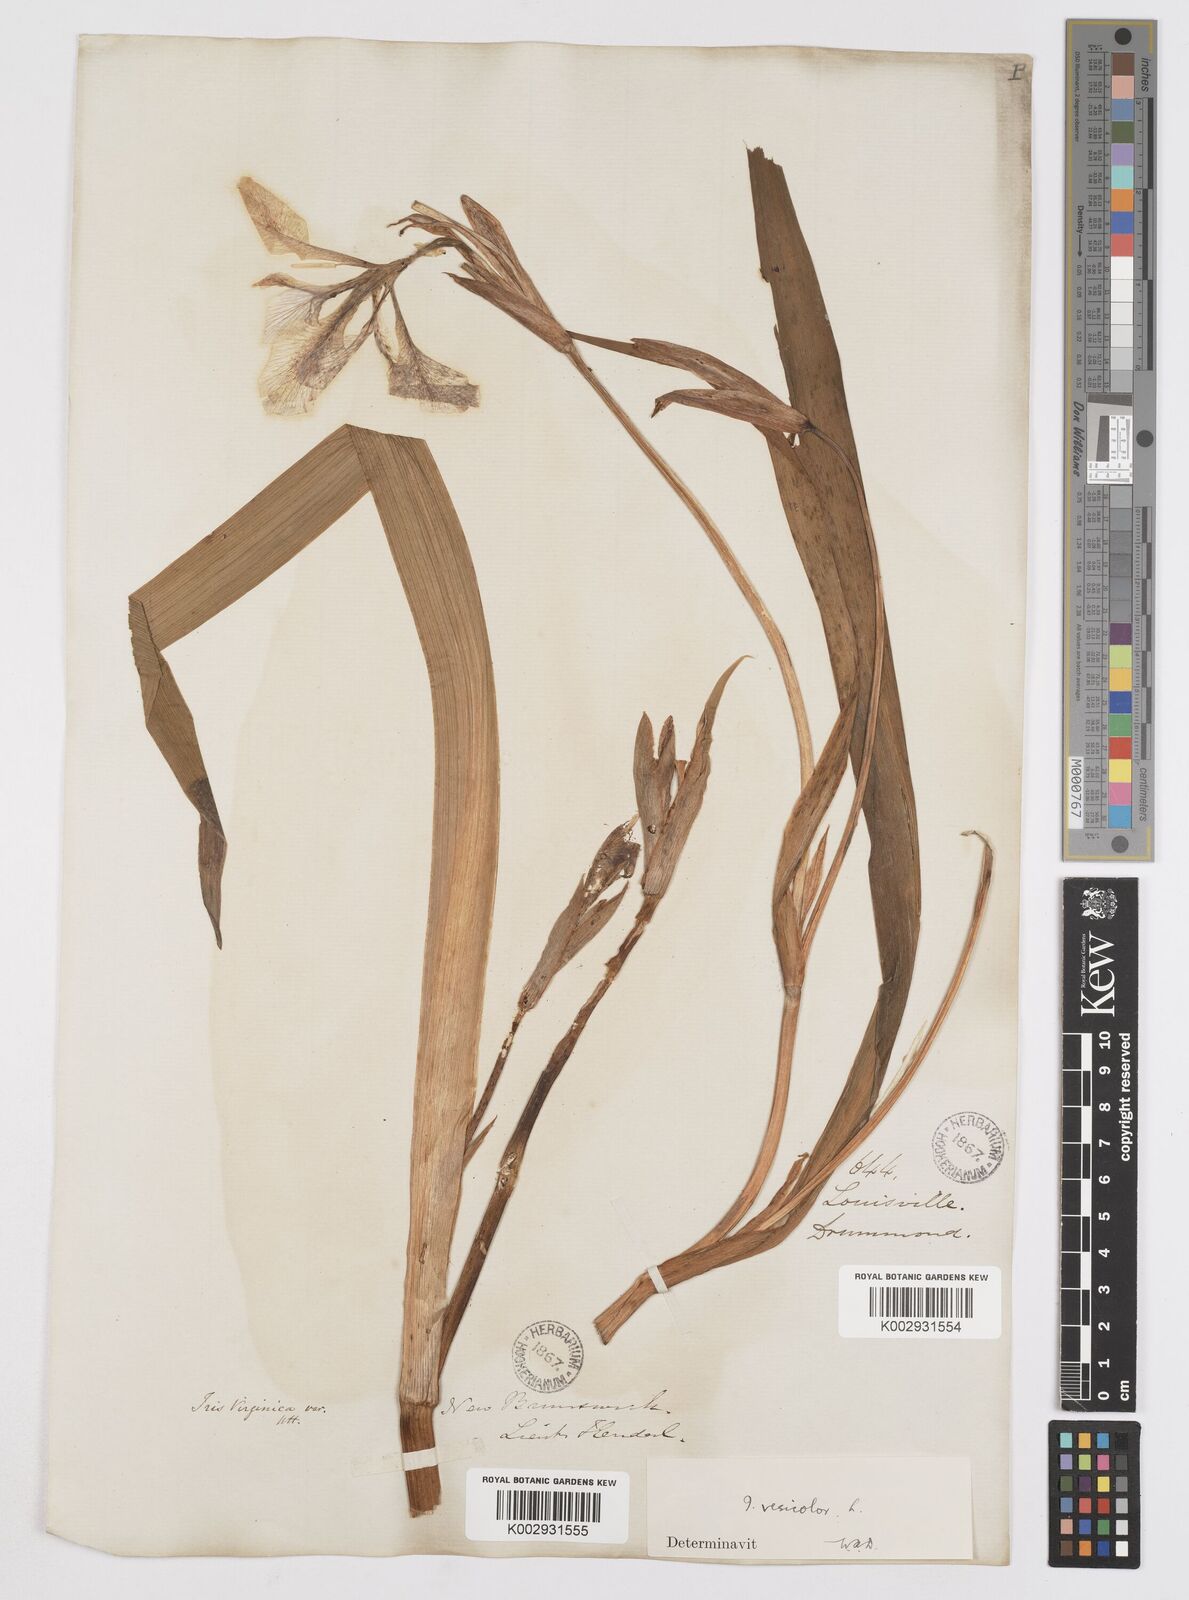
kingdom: Plantae
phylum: Tracheophyta
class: Liliopsida
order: Asparagales
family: Iridaceae
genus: Iris
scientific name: Iris virginica
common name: Southern blue flag
